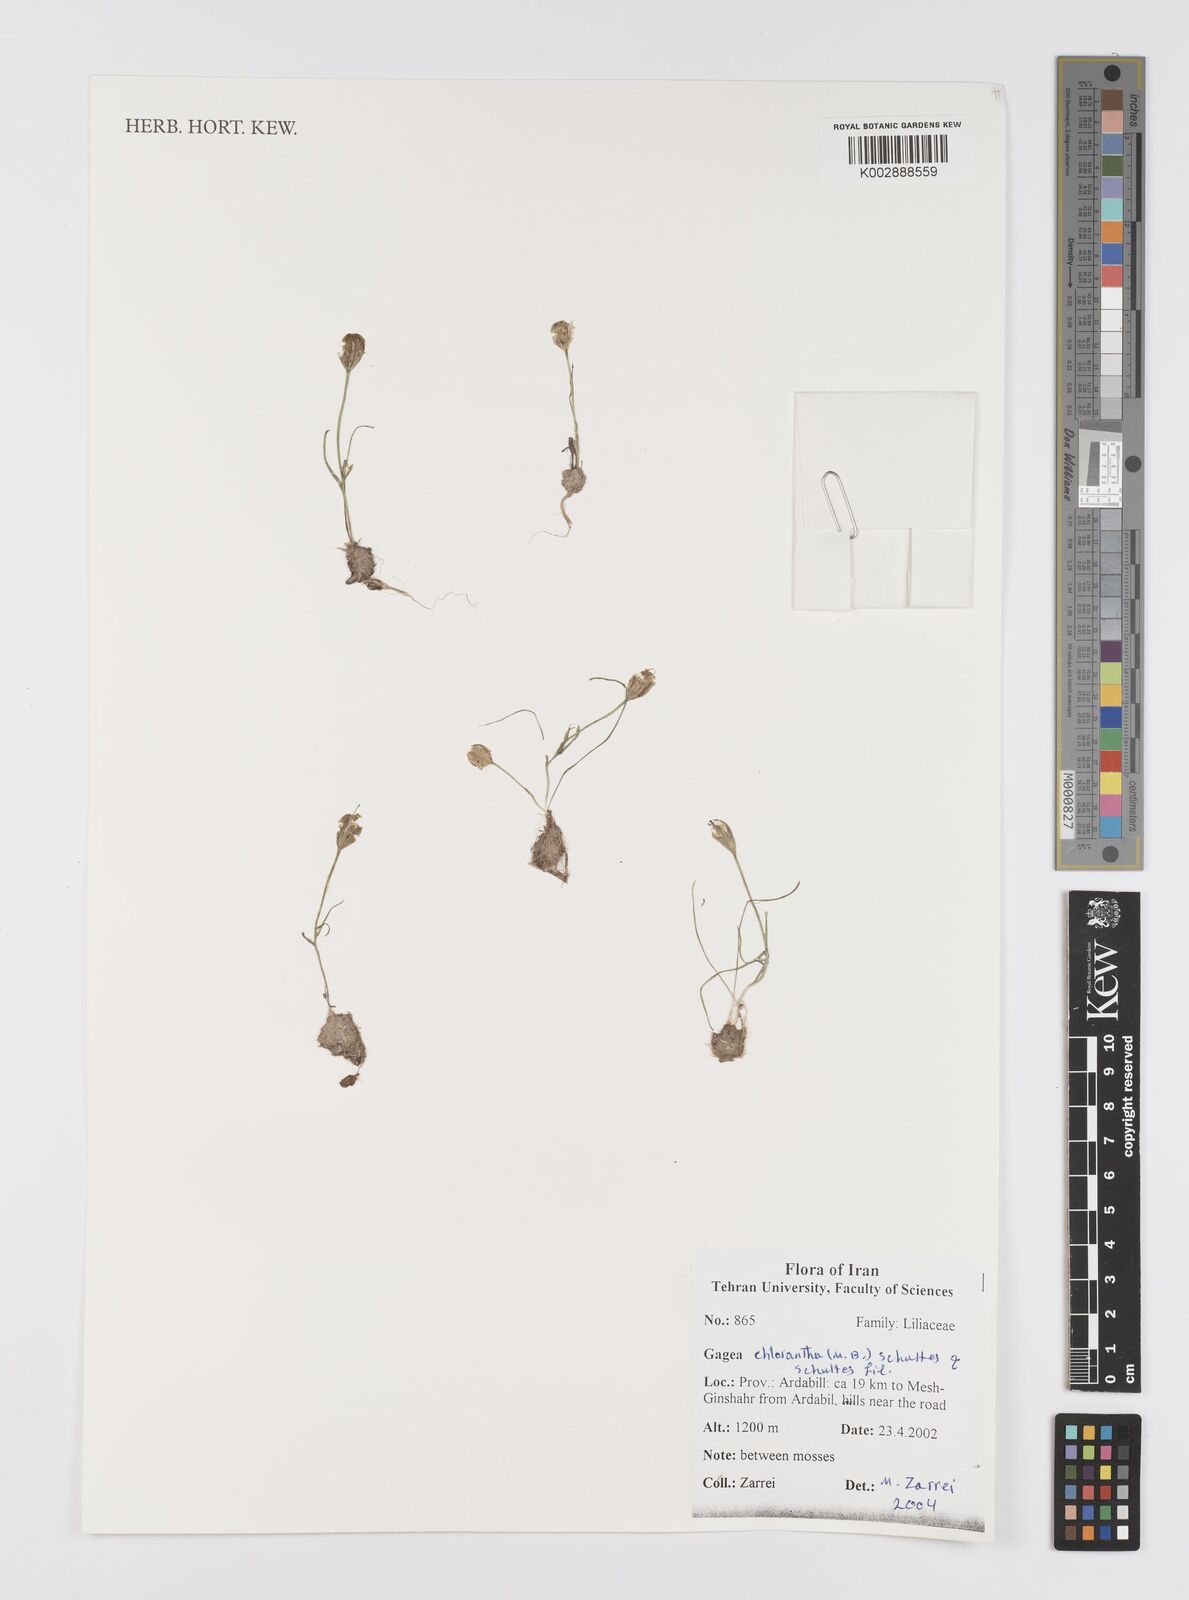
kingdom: Plantae
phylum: Tracheophyta
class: Liliopsida
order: Liliales
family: Liliaceae
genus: Gagea
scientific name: Gagea chlorantha
